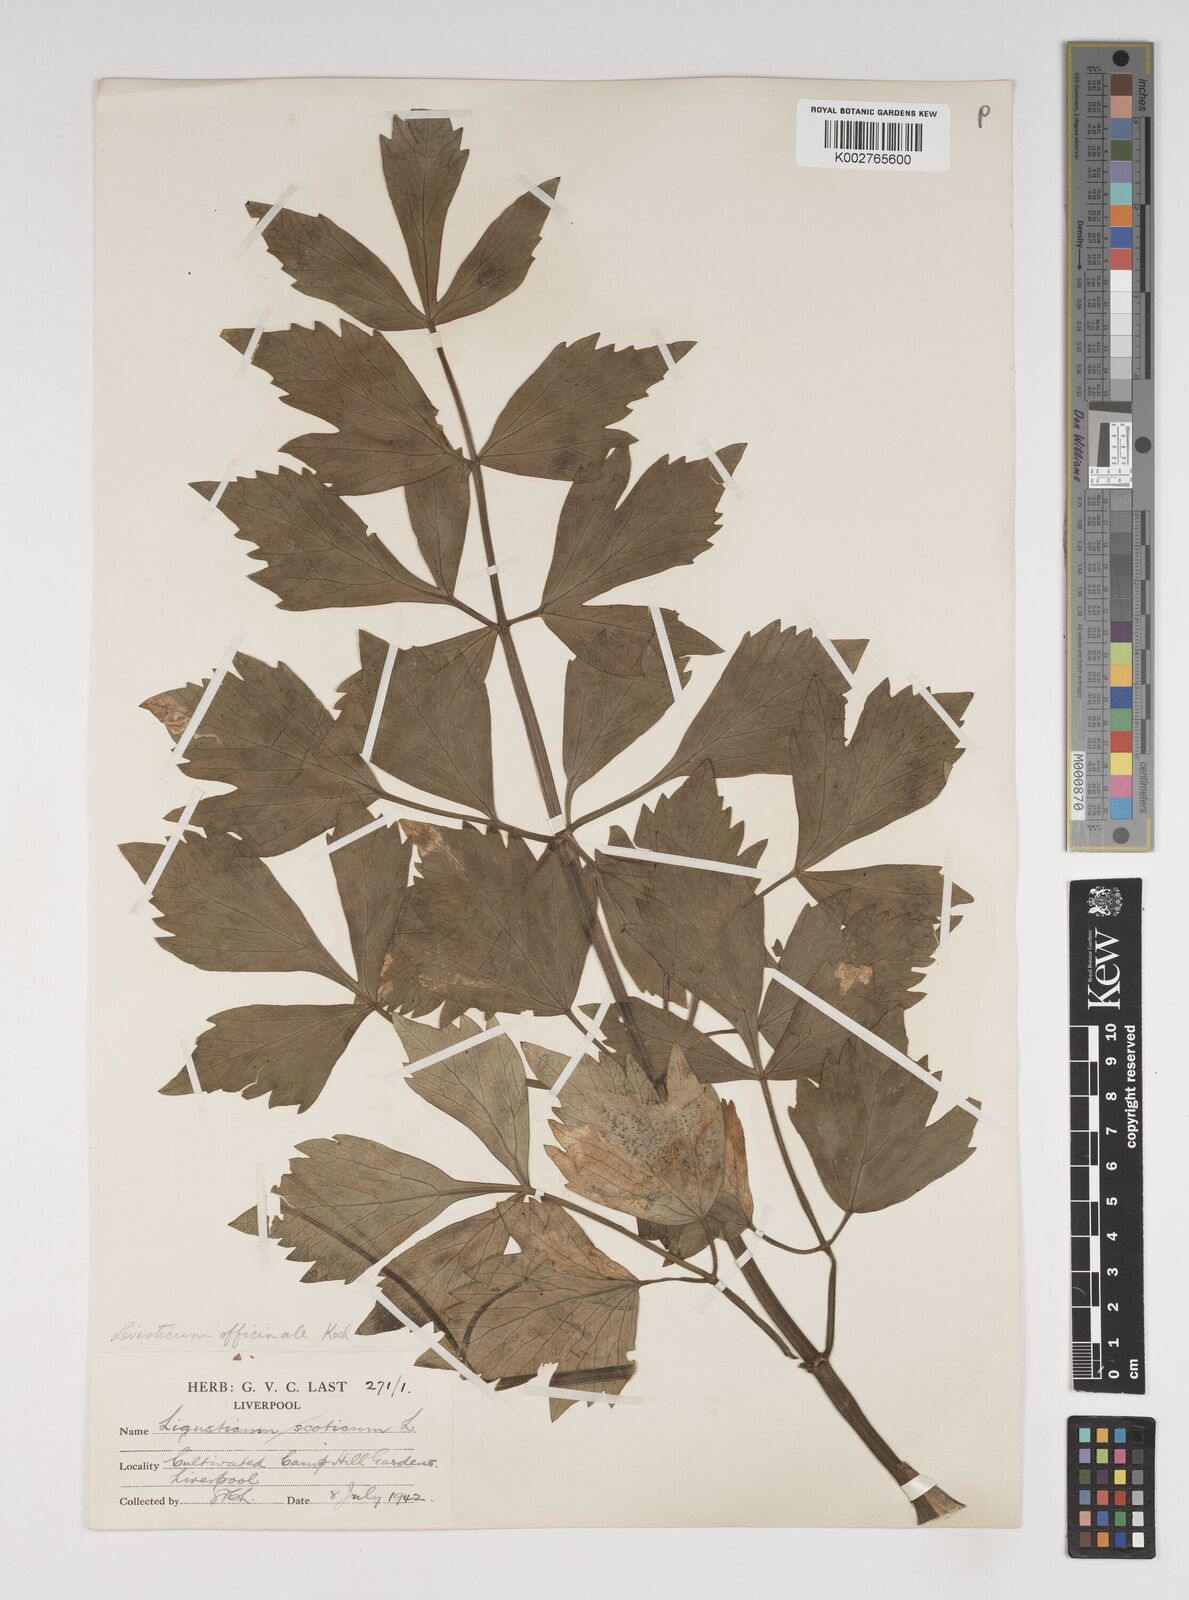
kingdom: Plantae
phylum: Tracheophyta
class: Magnoliopsida
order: Apiales
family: Apiaceae
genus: Levisticum
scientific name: Levisticum officinale
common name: Lovage
